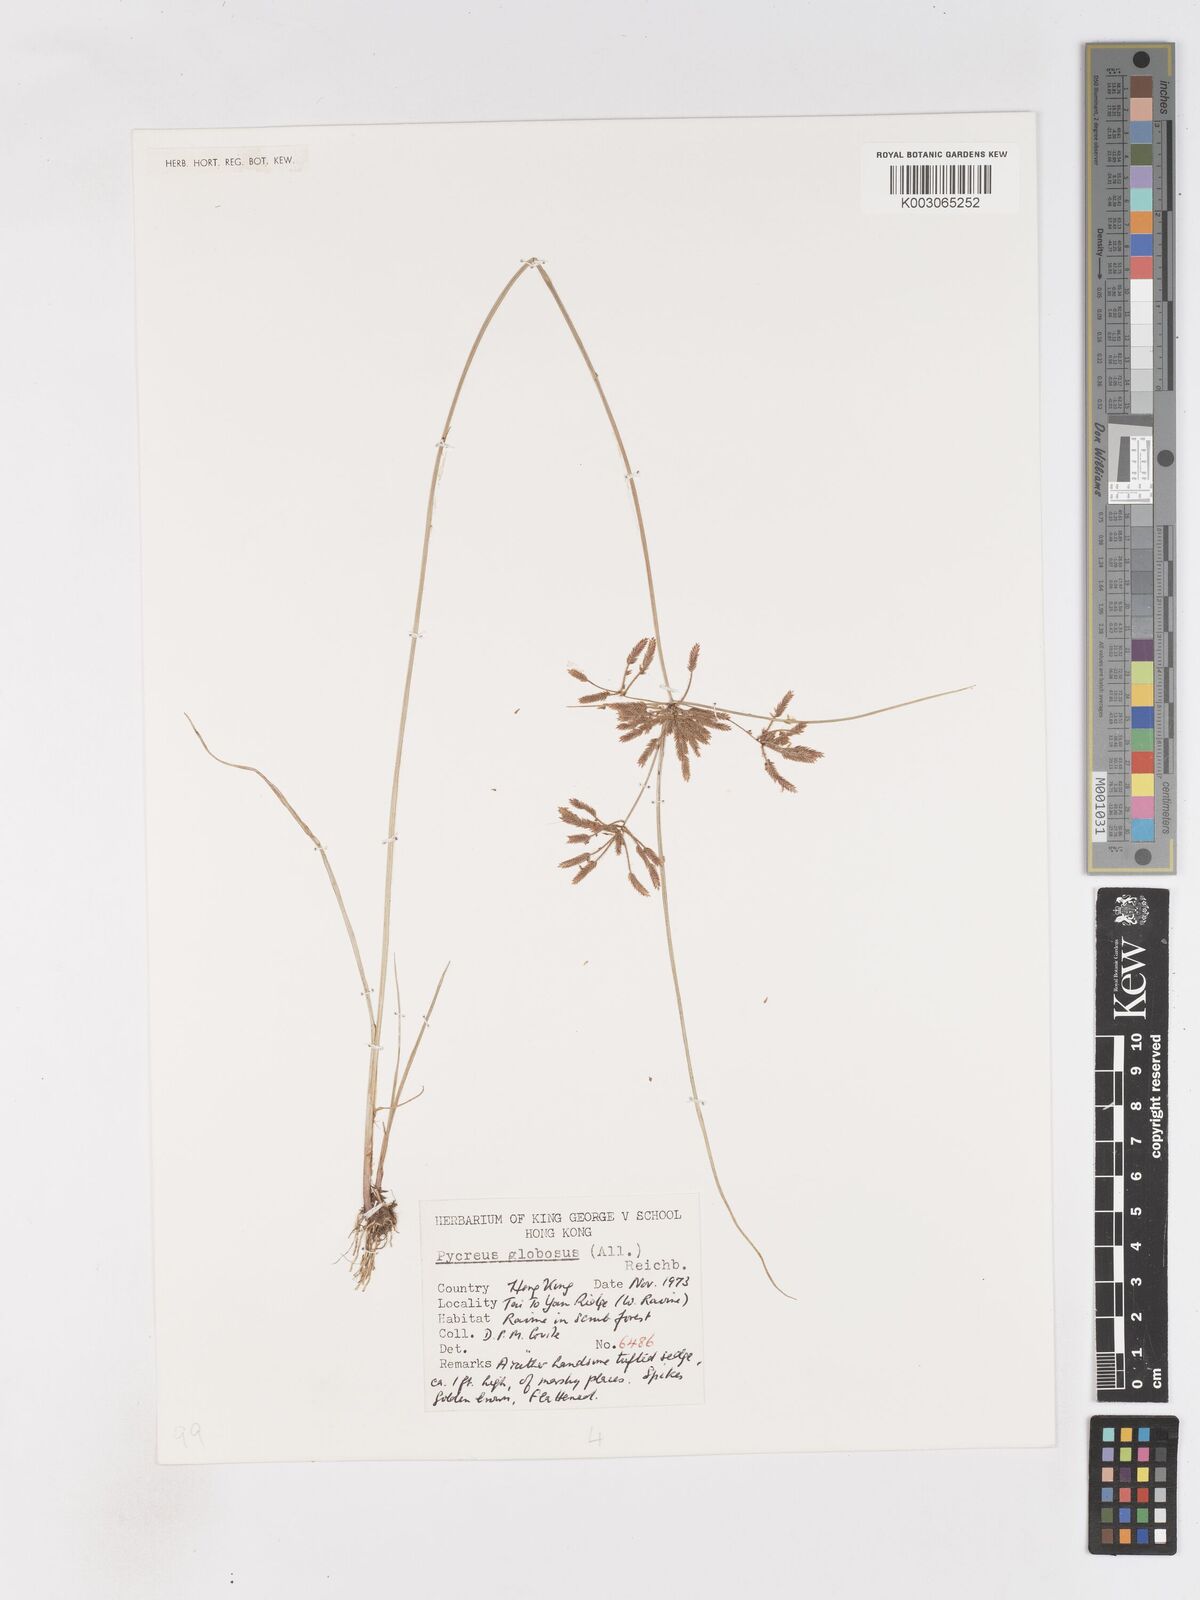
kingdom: Plantae
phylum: Tracheophyta
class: Liliopsida
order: Poales
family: Cyperaceae
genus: Cyperus
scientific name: Cyperus flavidus
